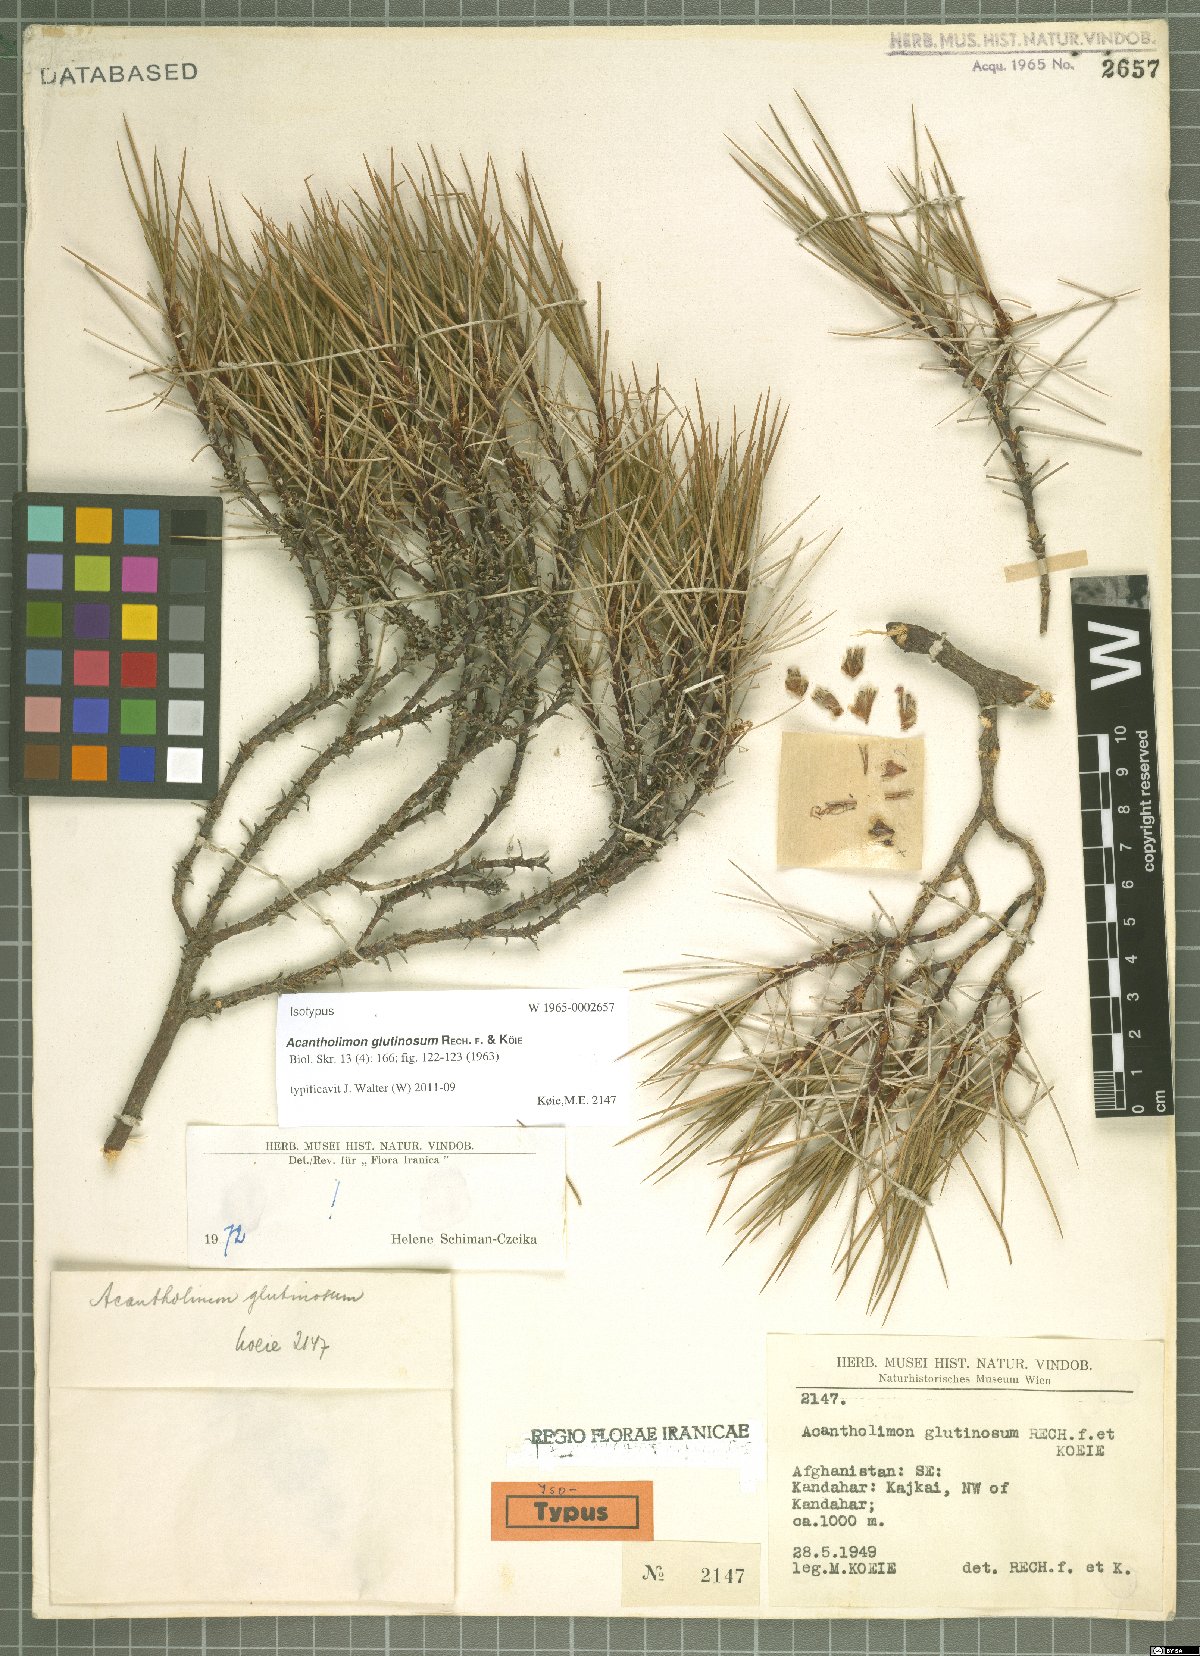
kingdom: Plantae
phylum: Tracheophyta
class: Magnoliopsida
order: Caryophyllales
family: Plumbaginaceae
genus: Acantholimon
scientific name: Acantholimon glutinosum
